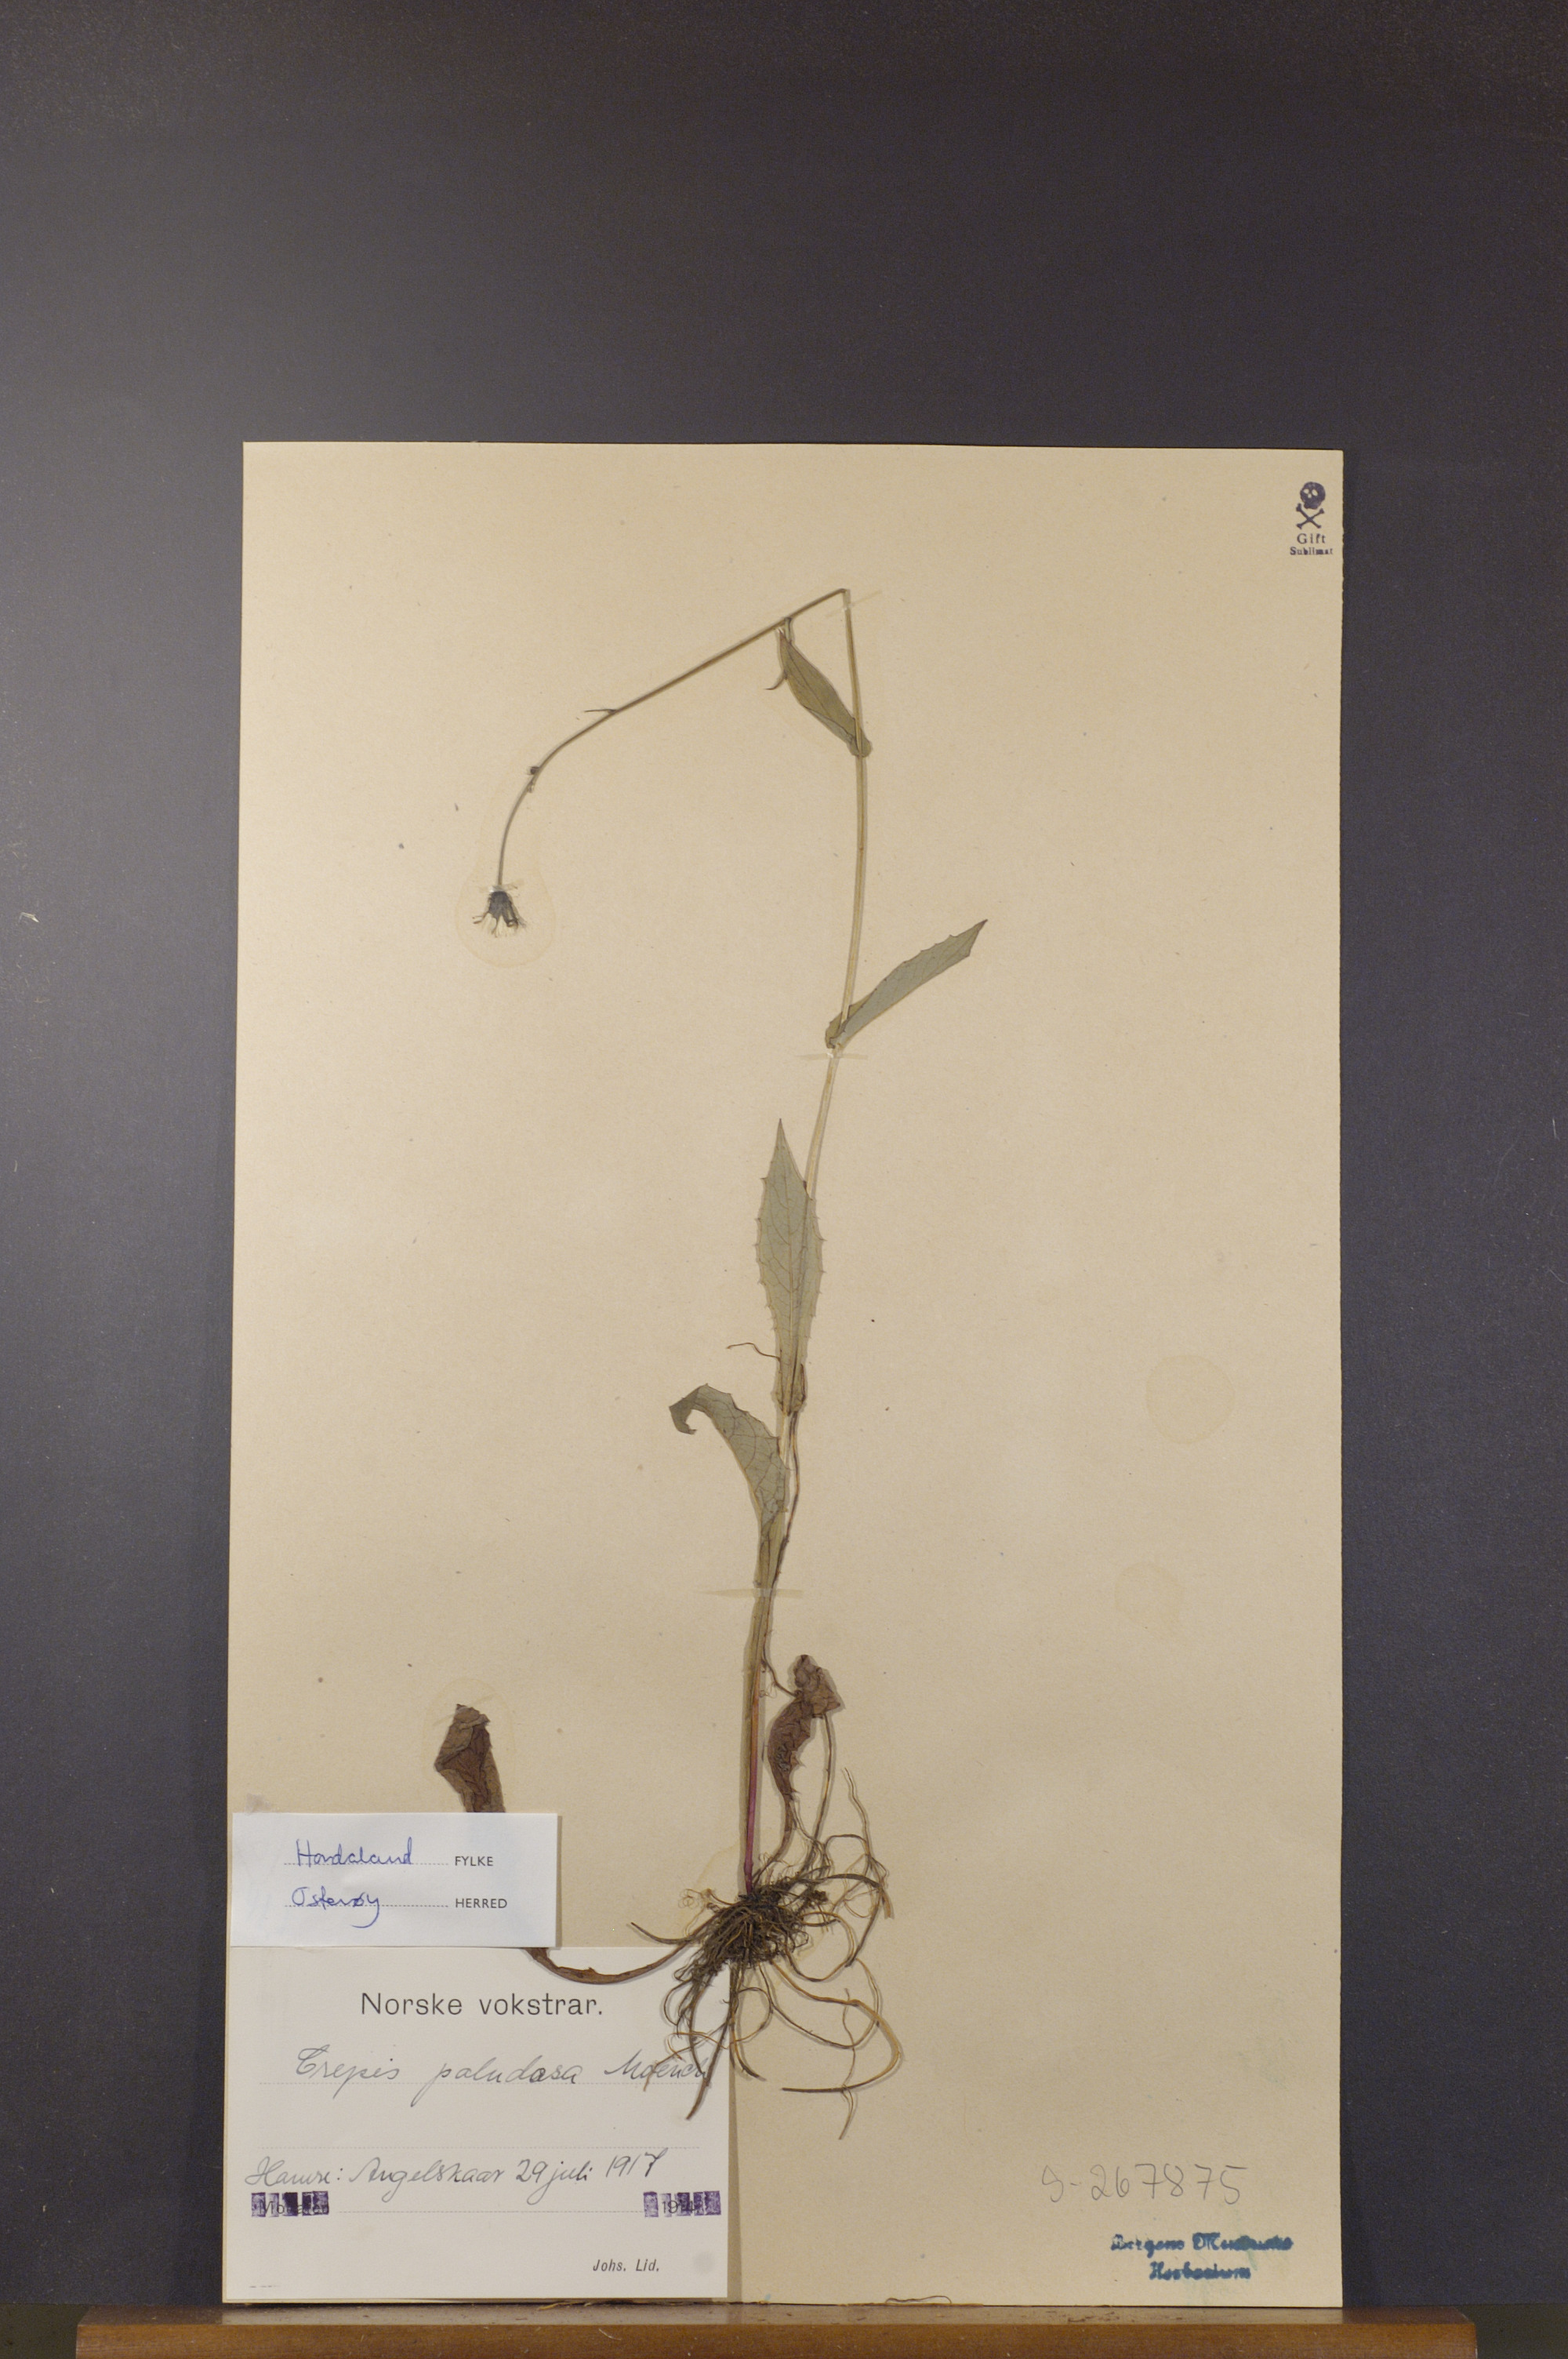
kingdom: Plantae
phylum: Tracheophyta
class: Magnoliopsida
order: Asterales
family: Asteraceae
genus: Crepis
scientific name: Crepis paludosa
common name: Marsh hawk's-beard
